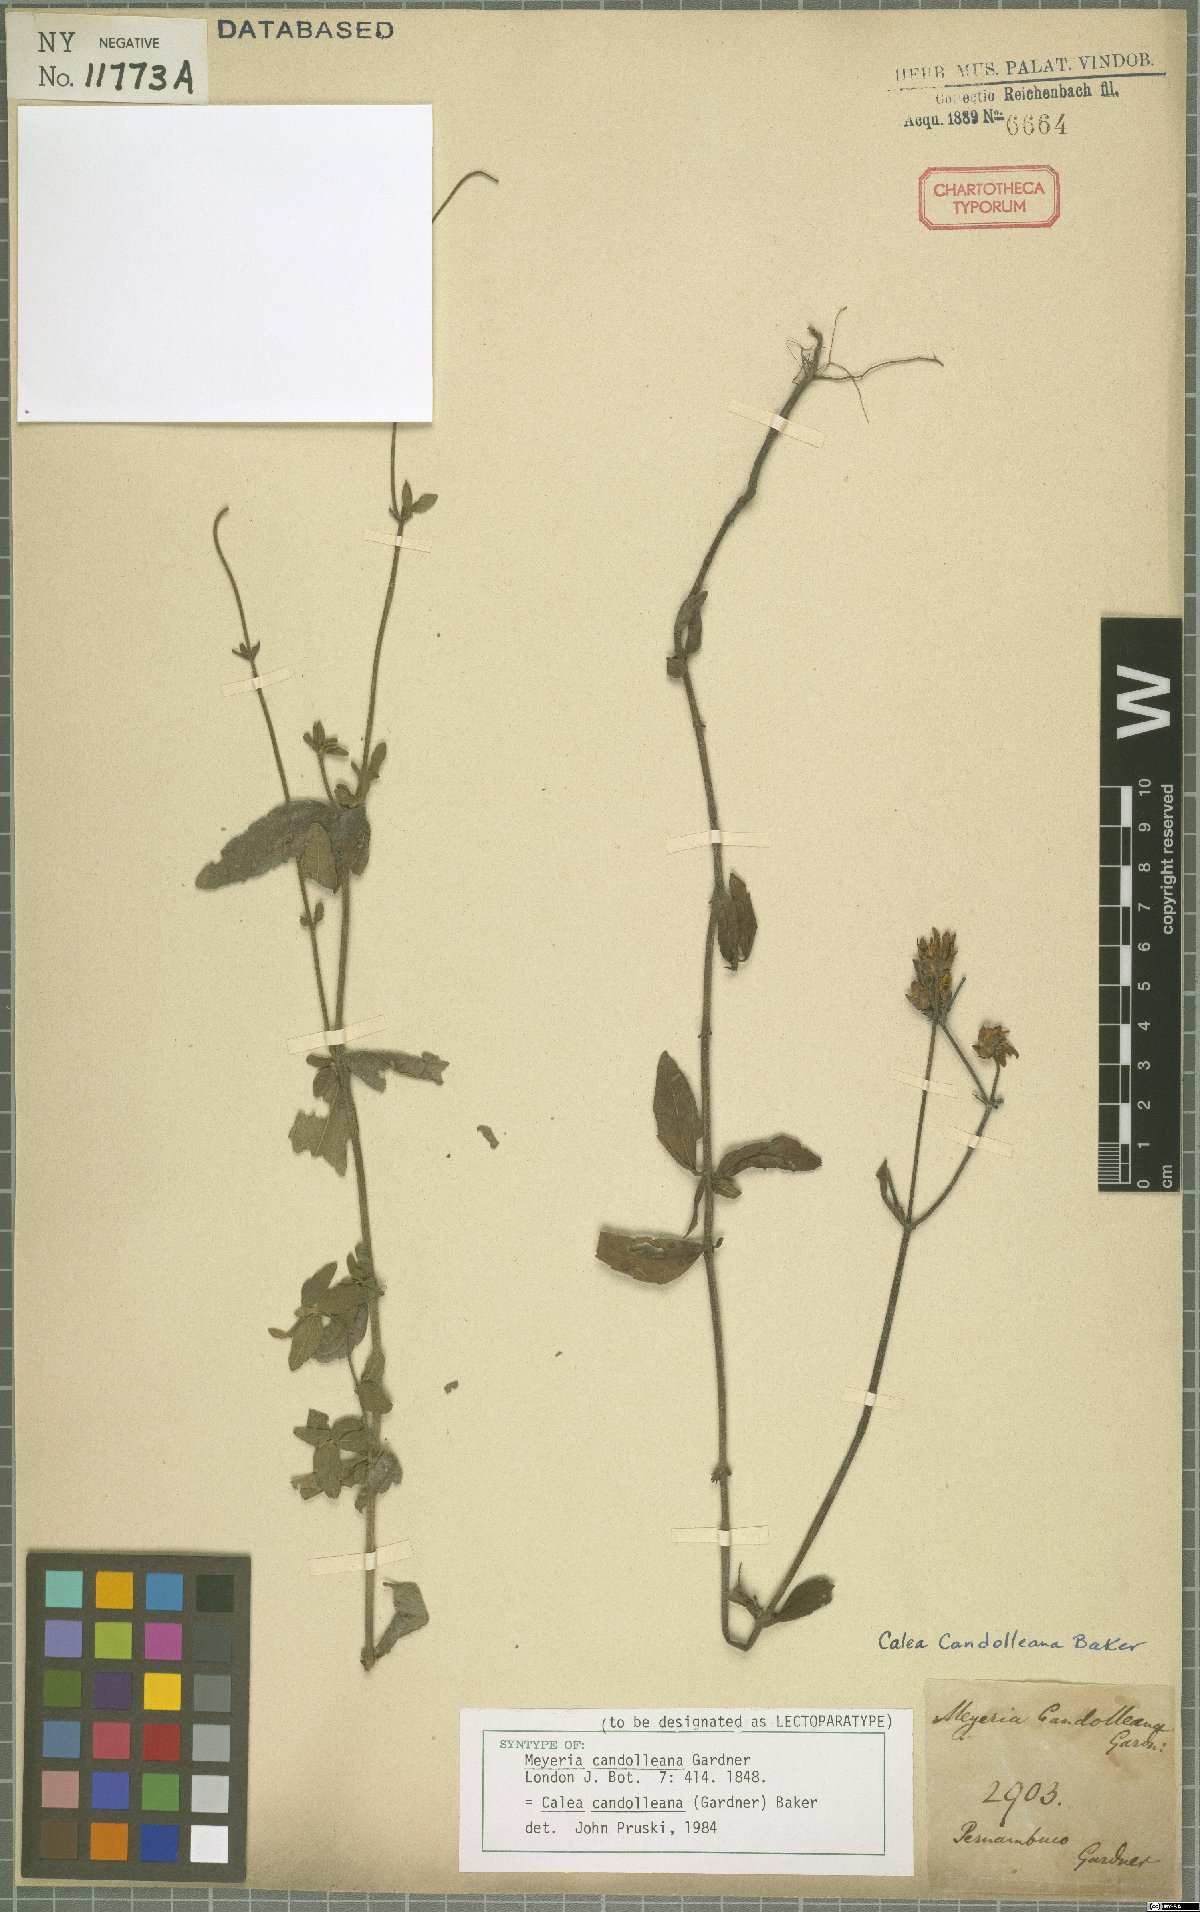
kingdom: Plantae
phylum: Tracheophyta
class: Magnoliopsida
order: Asterales
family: Asteraceae
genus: Calea
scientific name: Calea candolleana
